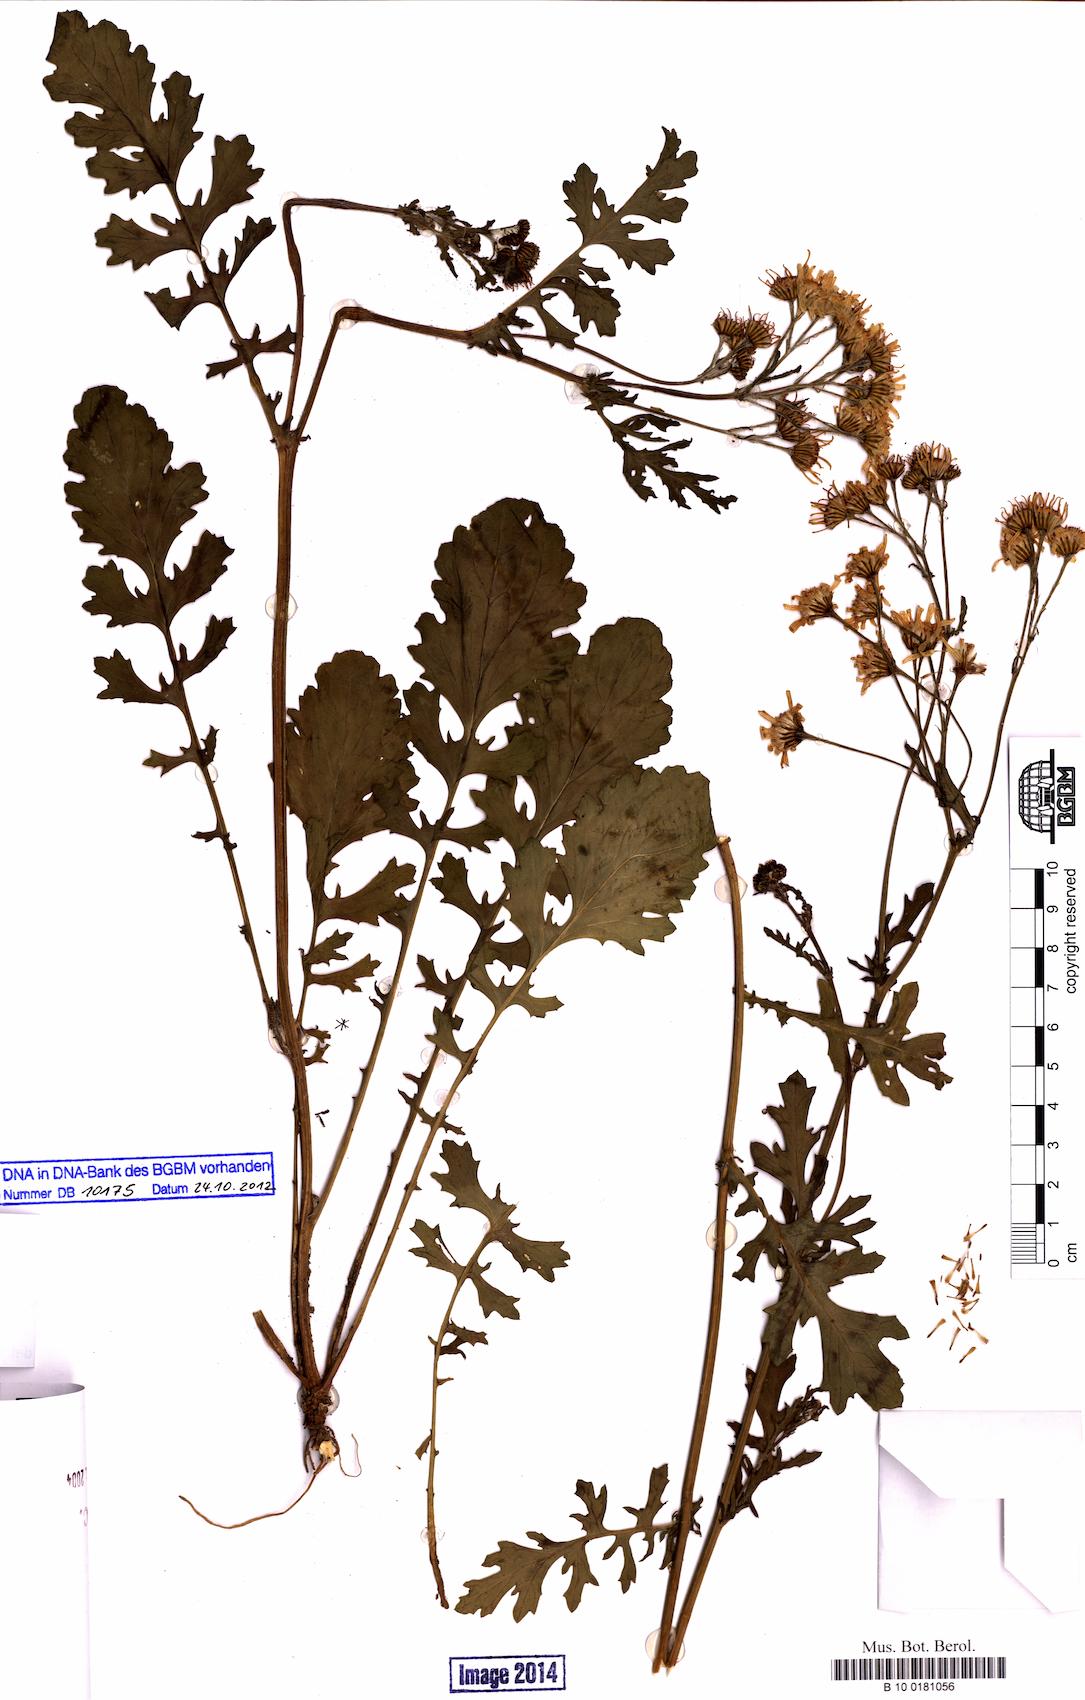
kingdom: Plantae
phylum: Tracheophyta
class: Magnoliopsida
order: Asterales
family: Asteraceae
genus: Jacobaea
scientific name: Jacobaea vulgaris
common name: Stinking willie
